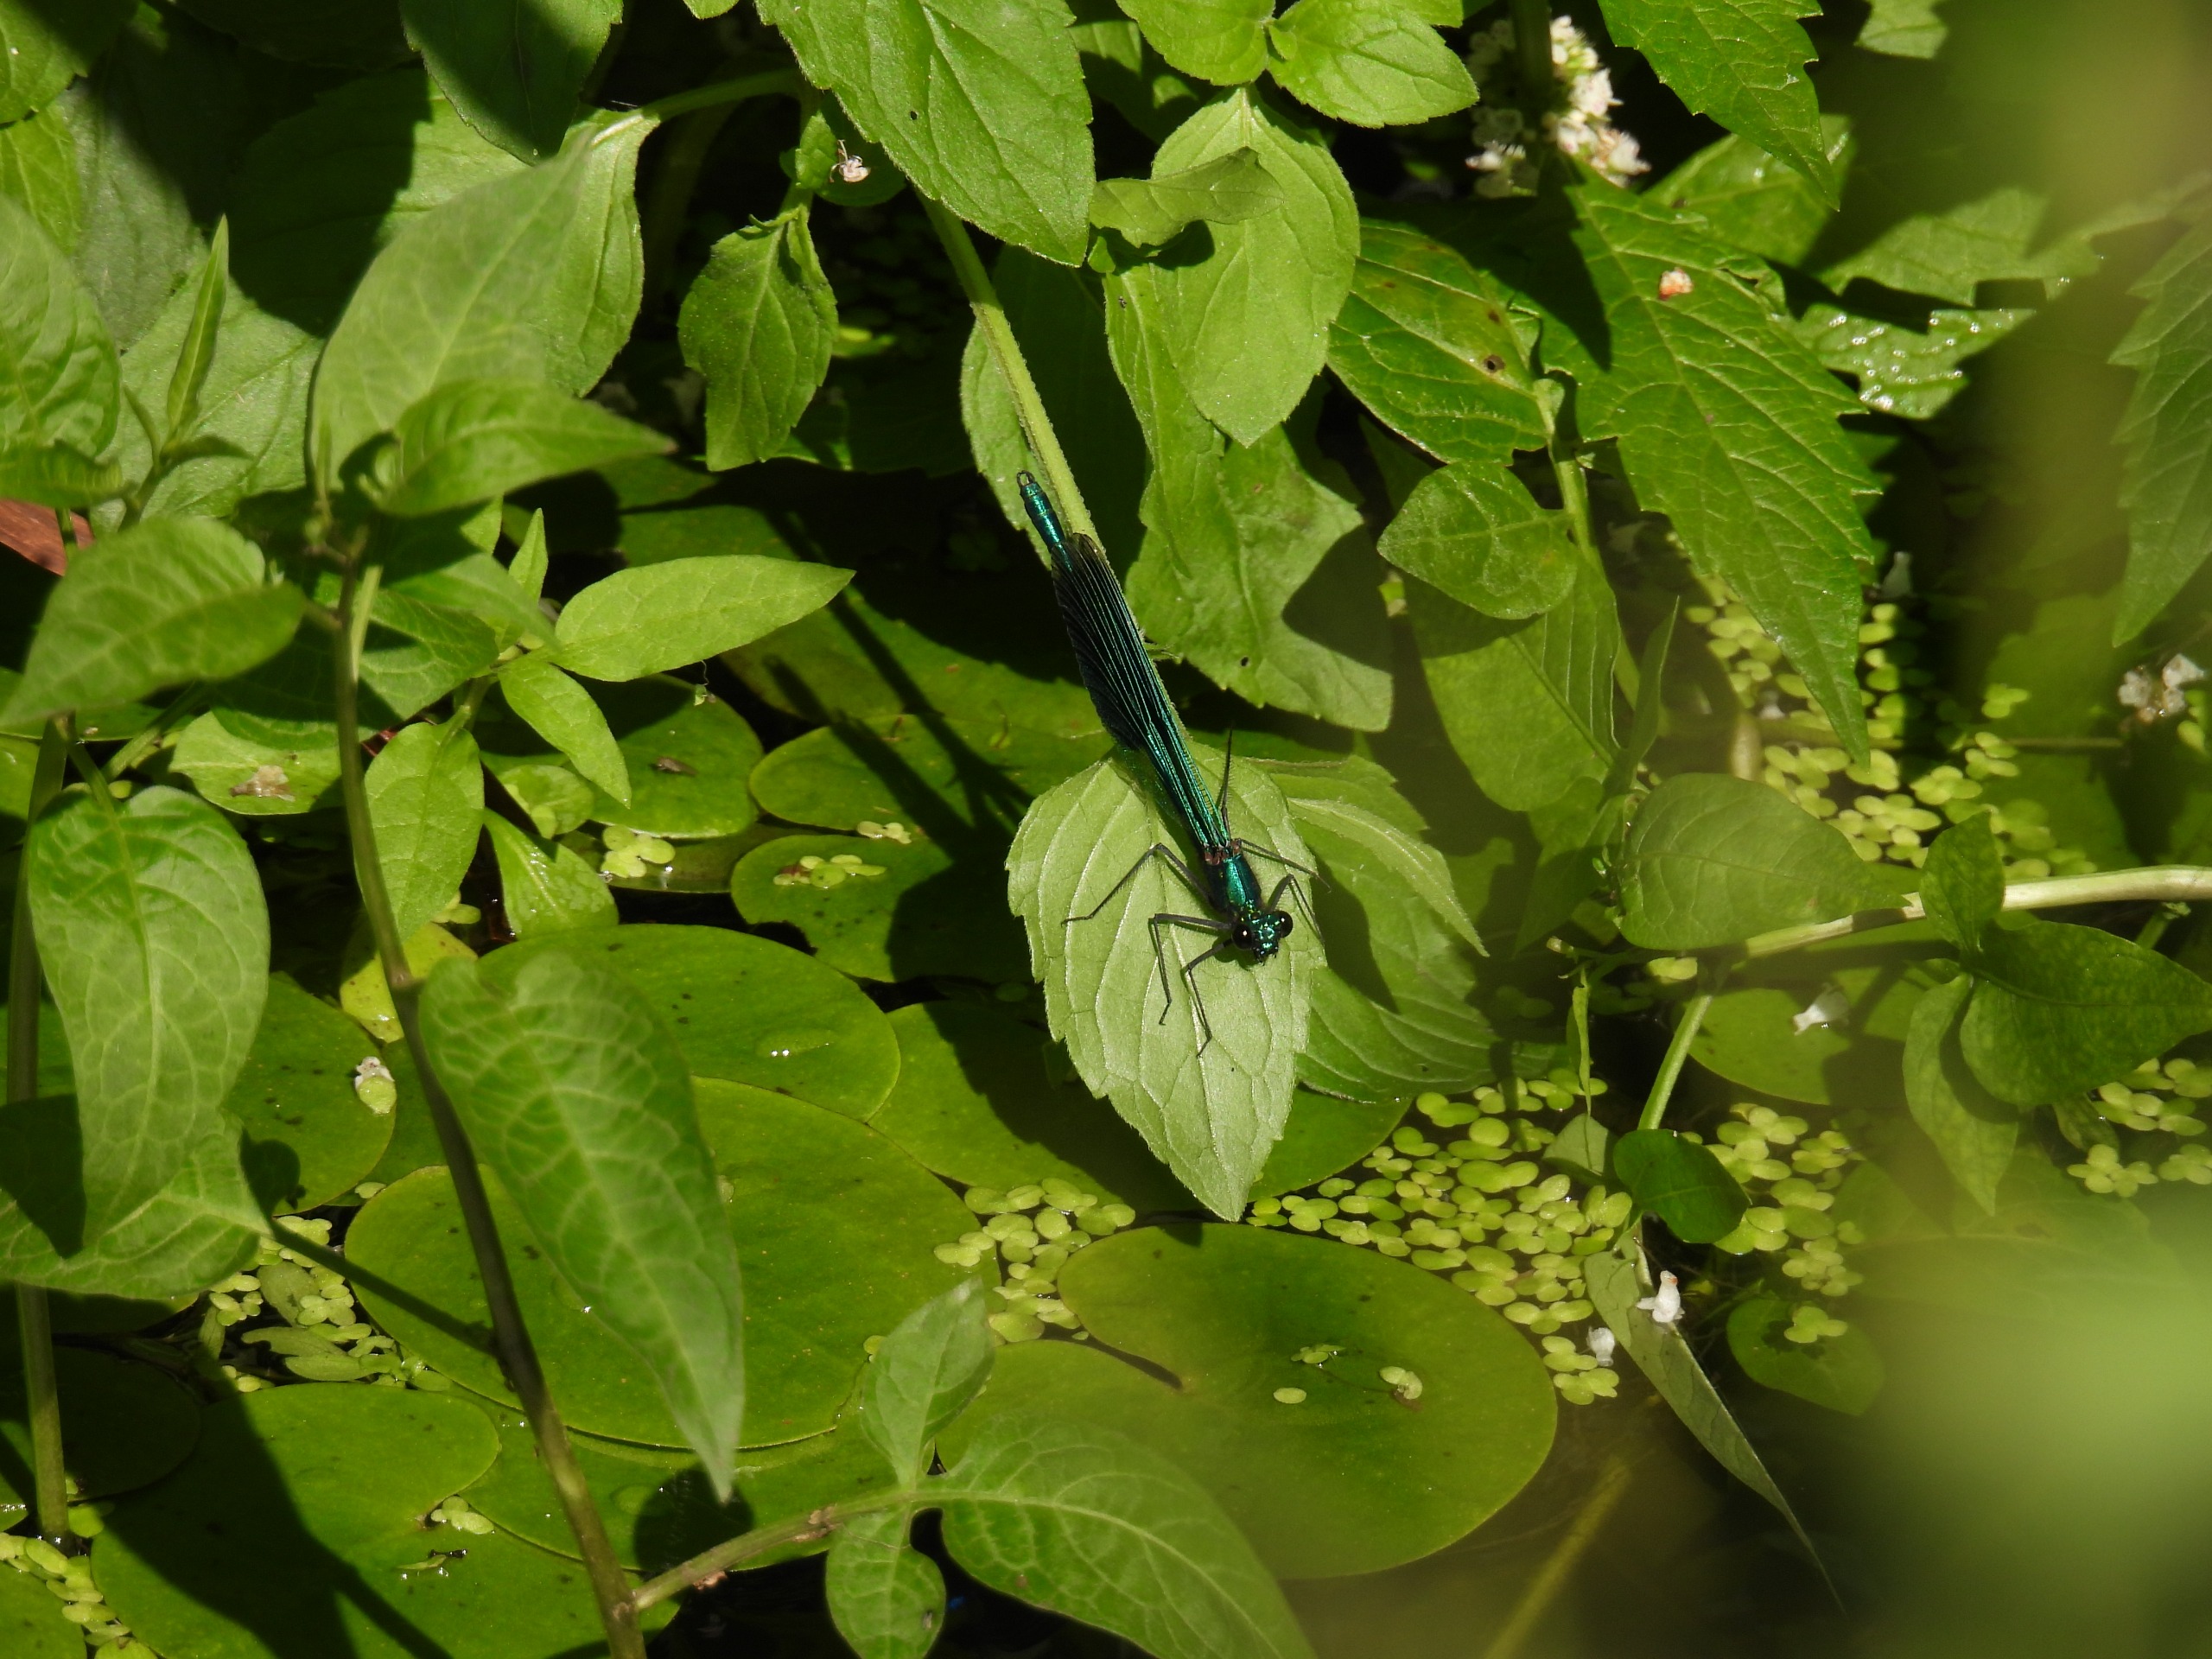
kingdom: Animalia
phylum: Arthropoda
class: Insecta
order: Odonata
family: Calopterygidae
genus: Calopteryx
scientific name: Calopteryx splendens
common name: Blåbåndet pragtvandnymfe
